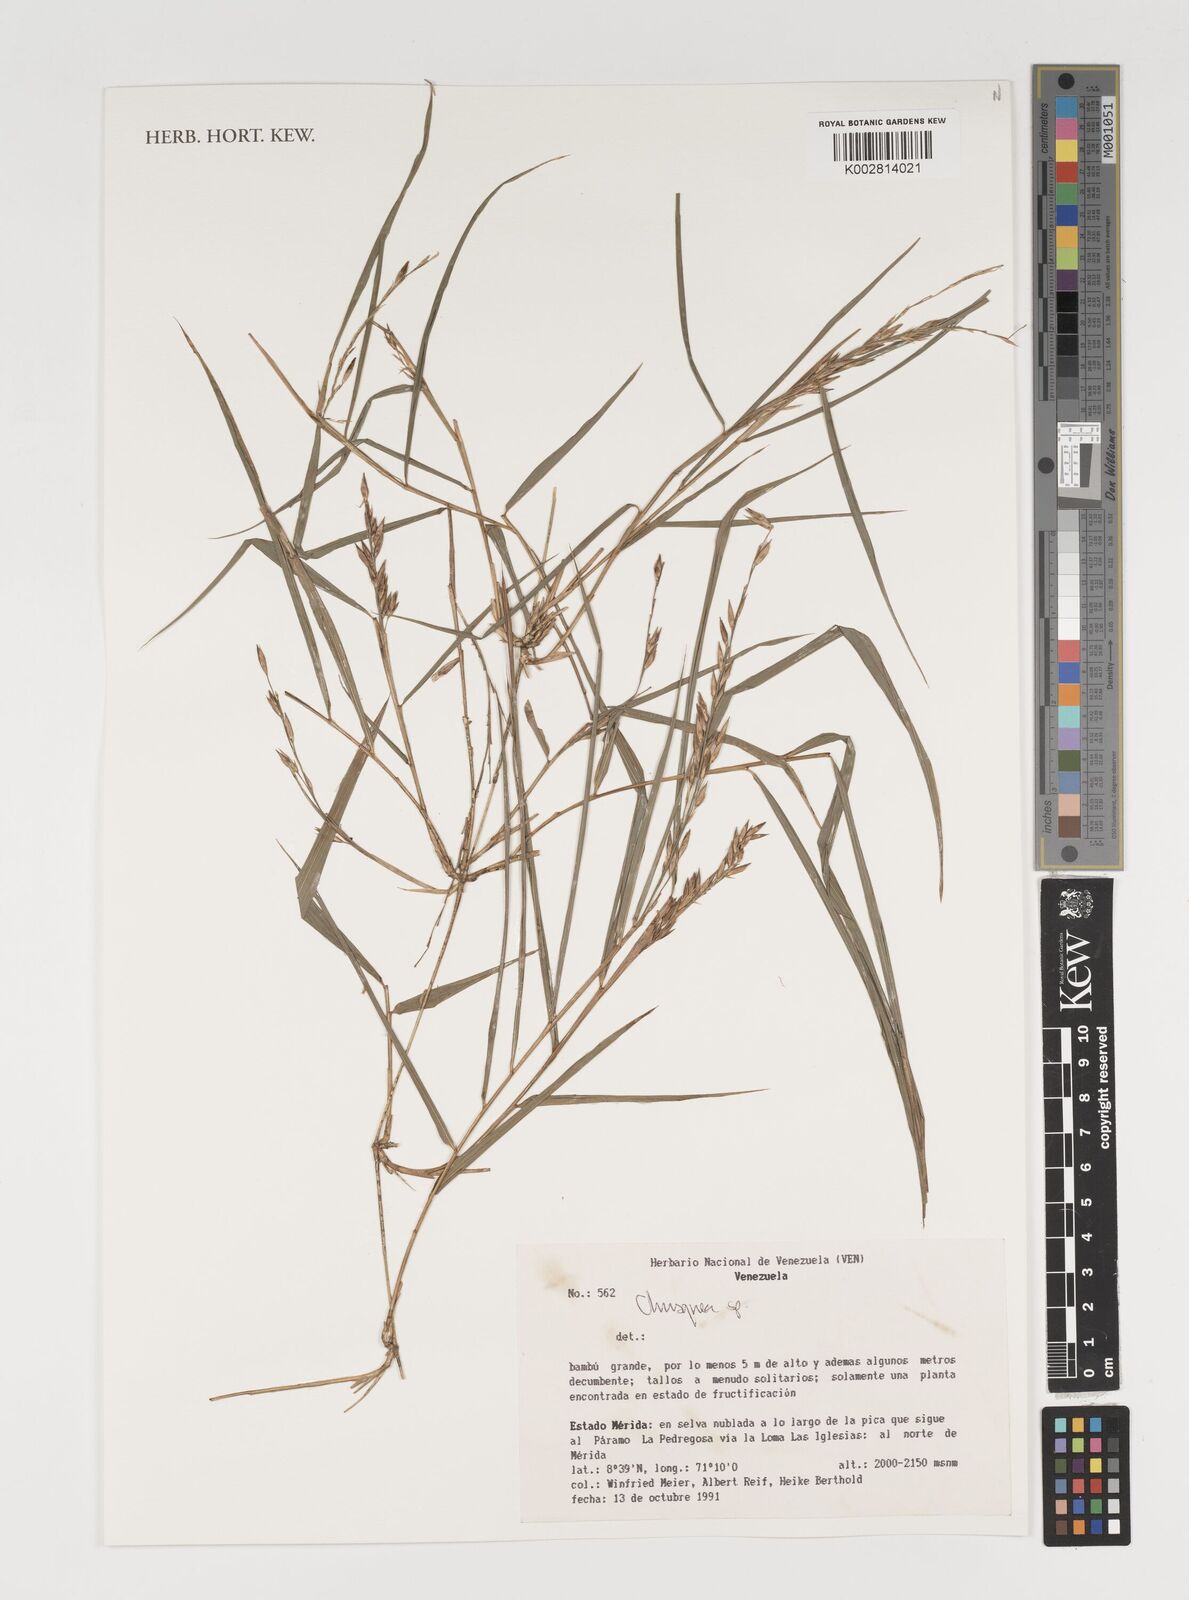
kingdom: Plantae
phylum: Tracheophyta
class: Liliopsida
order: Poales
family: Poaceae
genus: Chusquea
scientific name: Chusquea
